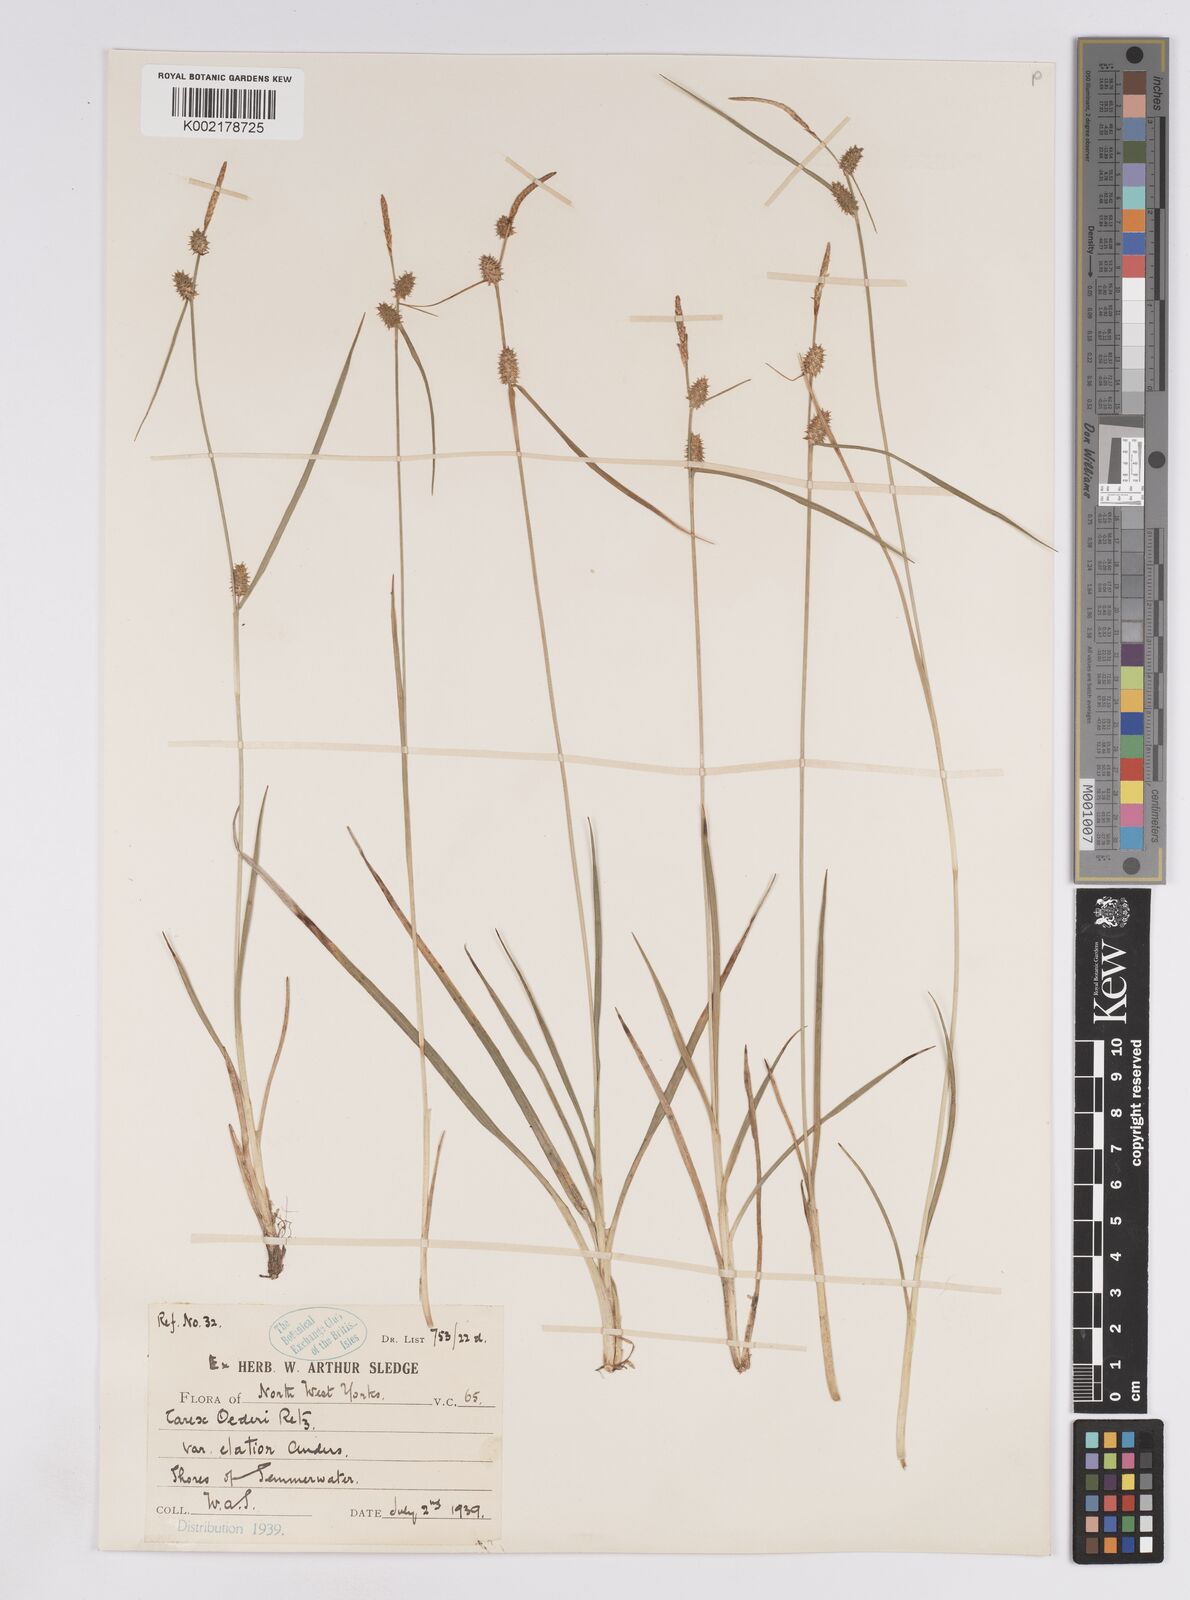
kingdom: Plantae
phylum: Tracheophyta
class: Liliopsida
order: Poales
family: Cyperaceae
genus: Carex
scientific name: Carex lepidocarpa
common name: Long-stalked yellow-sedge
